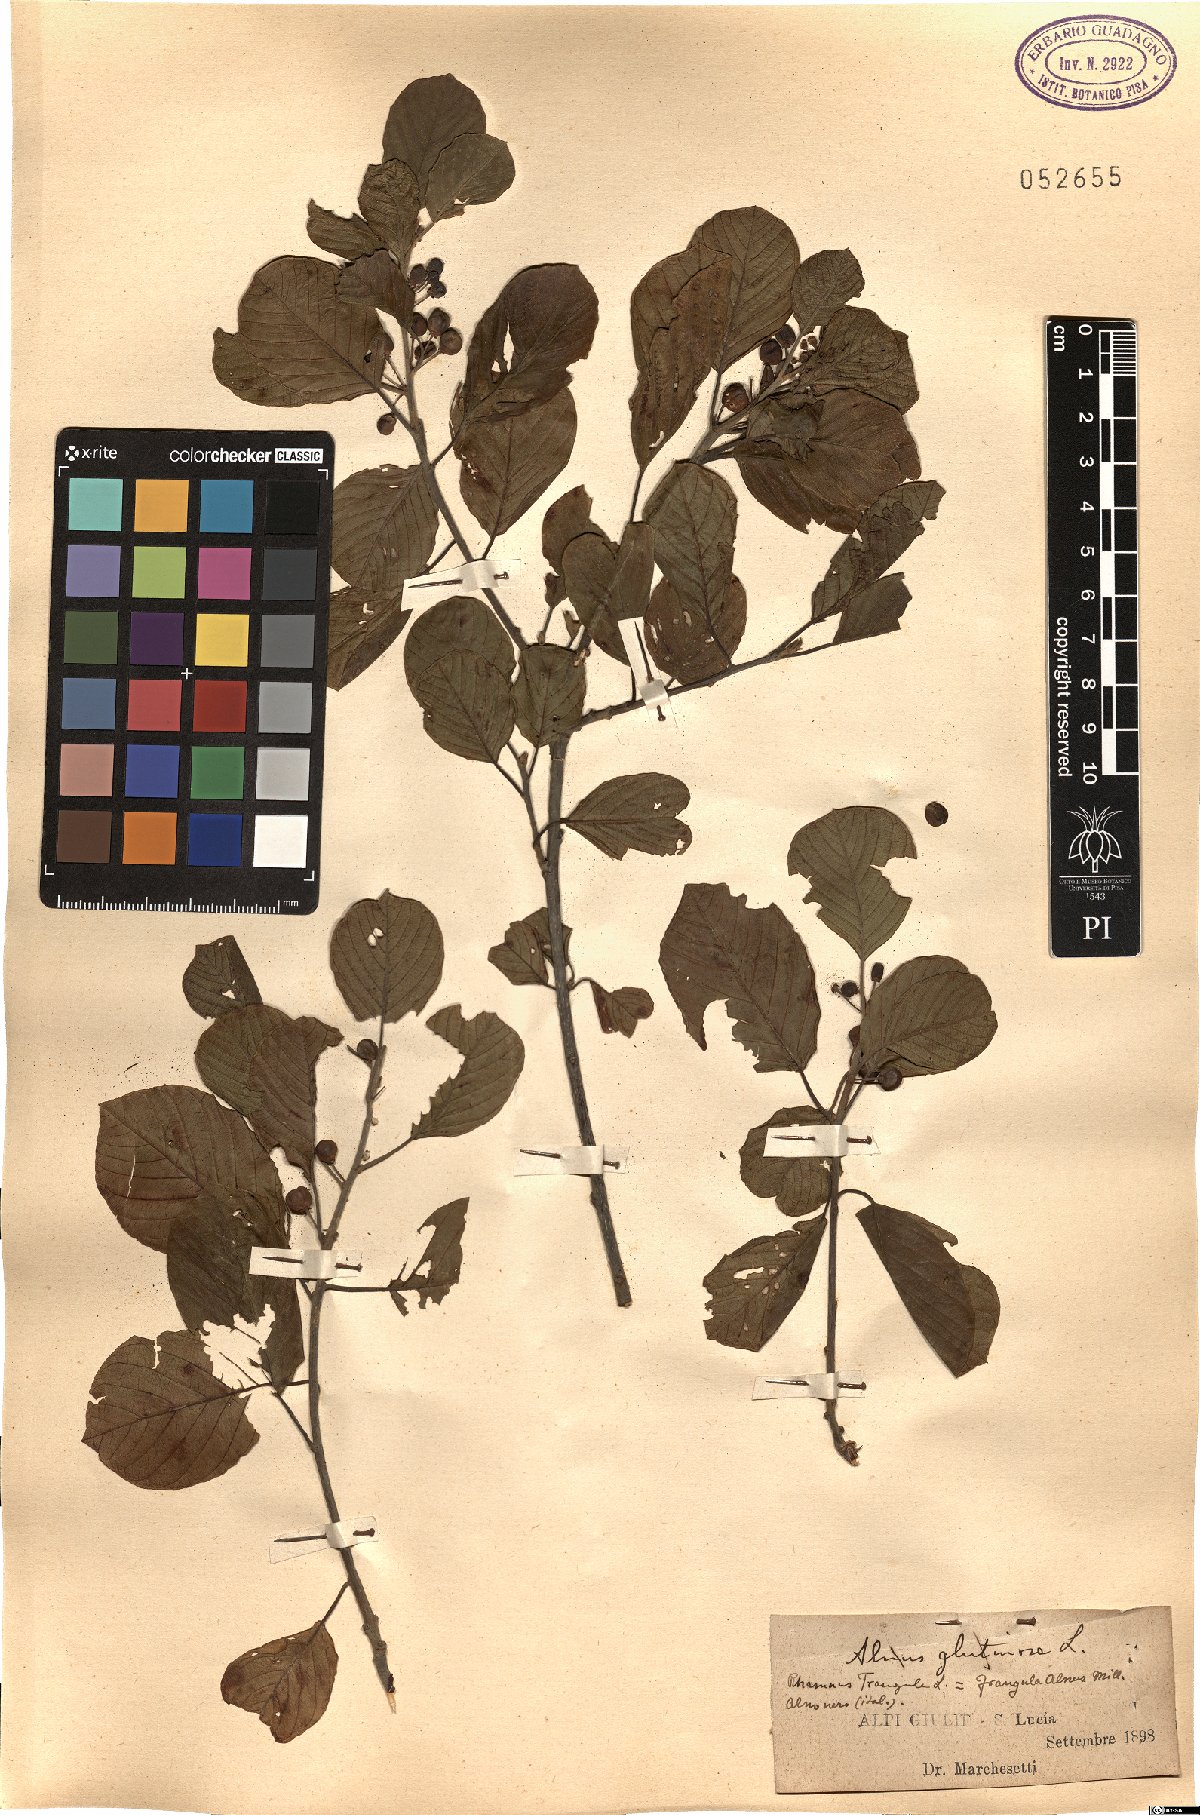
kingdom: Plantae
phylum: Tracheophyta
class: Magnoliopsida
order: Rosales
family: Rhamnaceae
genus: Frangula
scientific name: Frangula alnus
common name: Alder buckthorn
